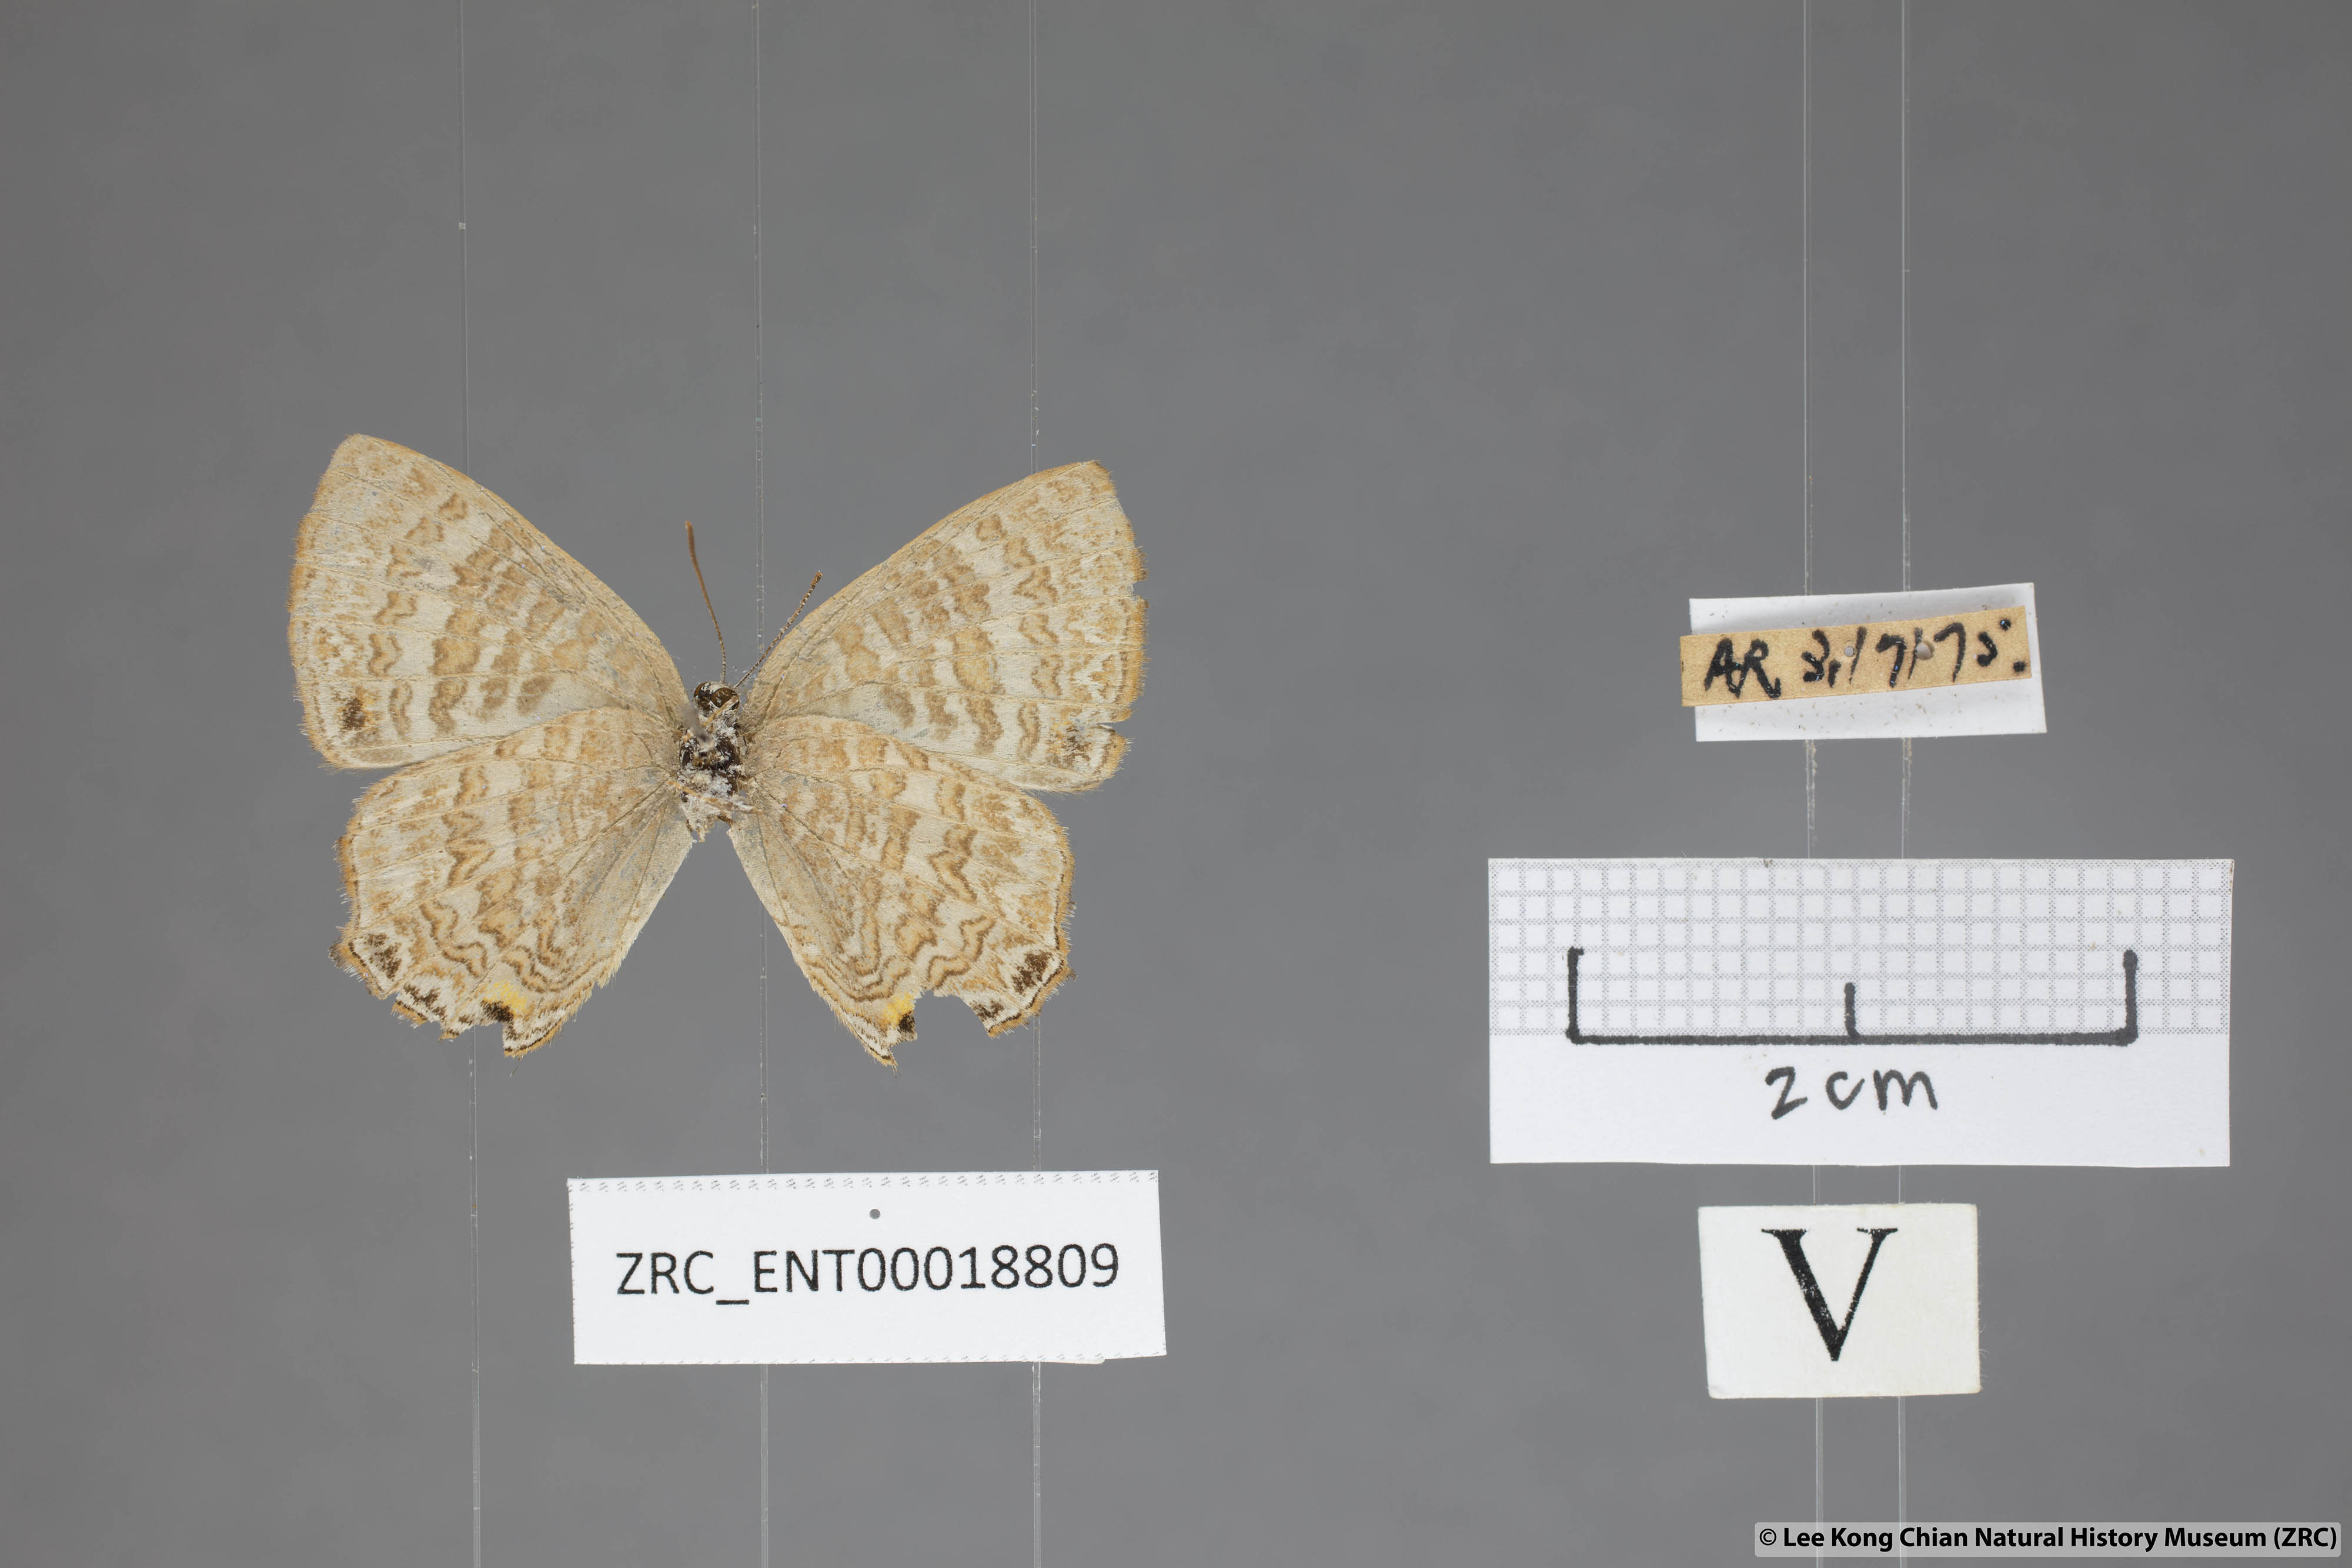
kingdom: Animalia
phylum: Arthropoda
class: Insecta
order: Lepidoptera
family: Lycaenidae
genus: Poritia
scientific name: Poritia pleurata
